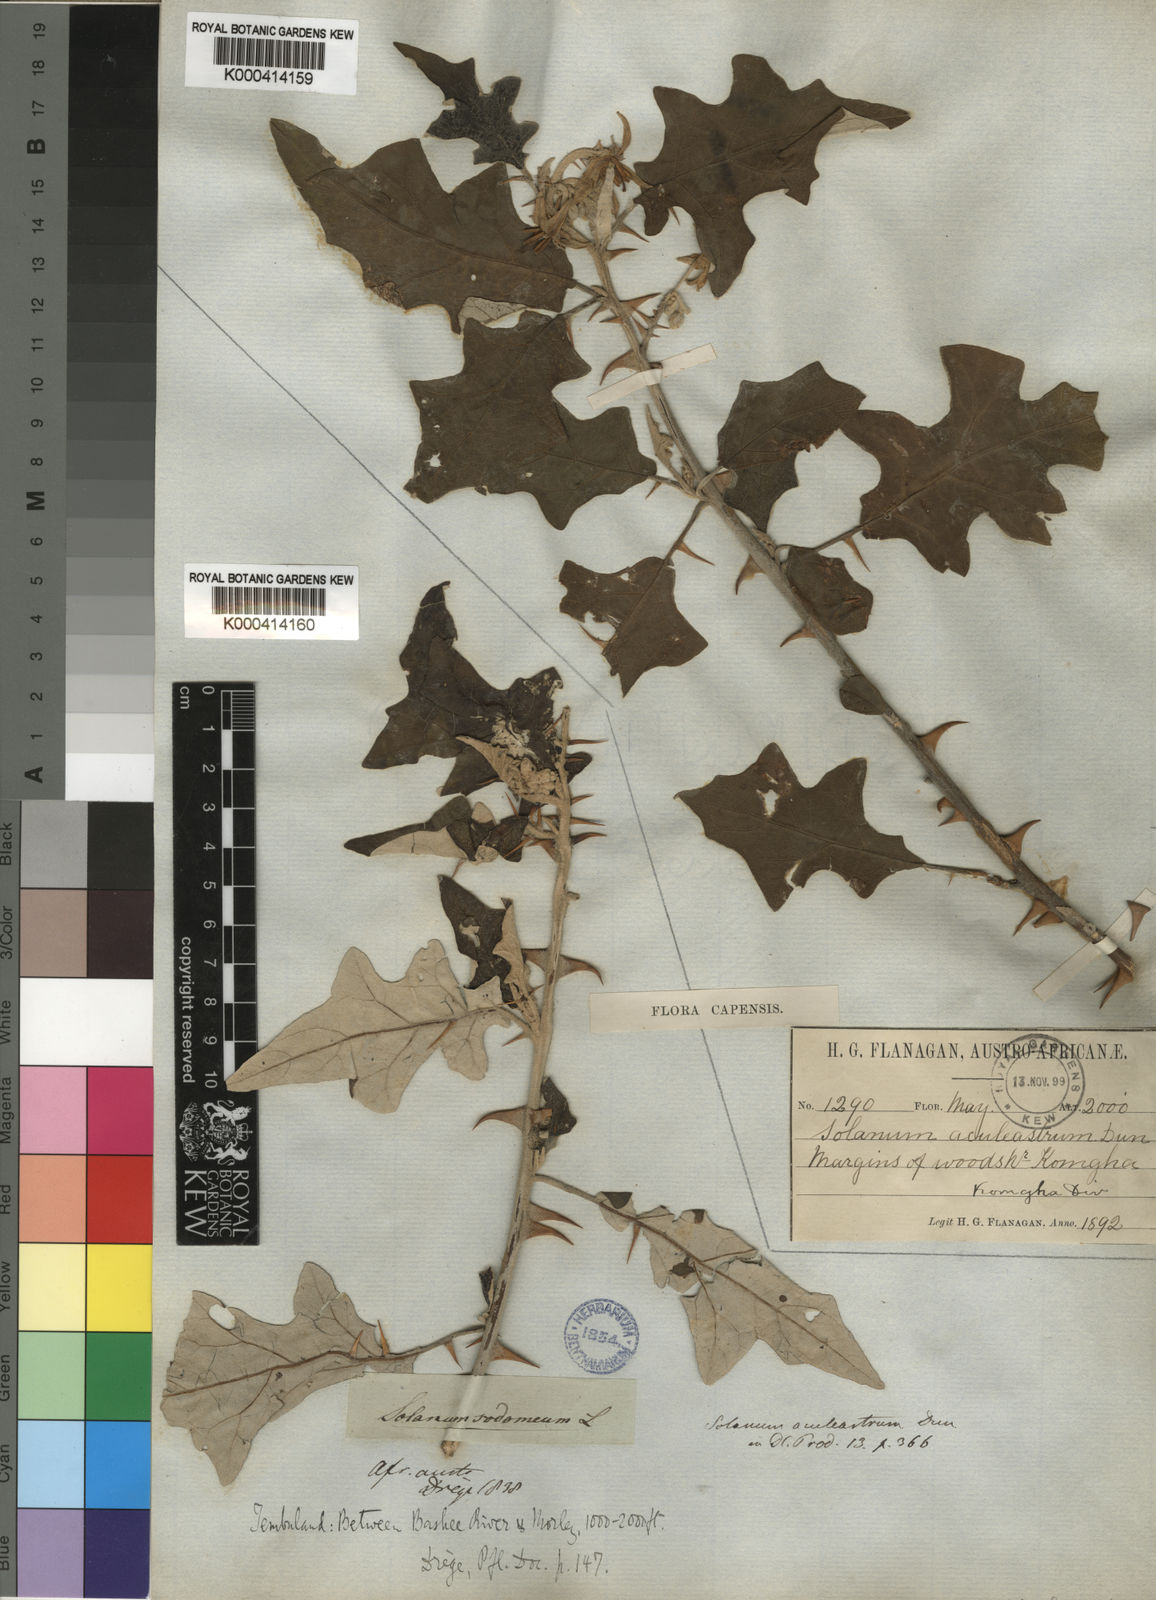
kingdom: Plantae
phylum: Tracheophyta
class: Magnoliopsida
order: Solanales
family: Solanaceae
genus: Solanum
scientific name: Solanum aculeastrum
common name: Goat bitter-apple
